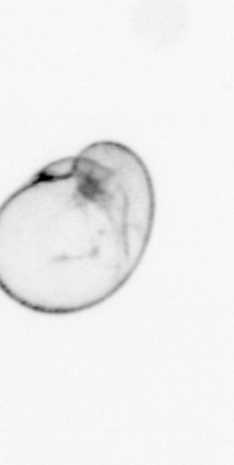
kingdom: Chromista
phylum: Myzozoa
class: Dinophyceae
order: Noctilucales
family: Noctilucaceae
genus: Noctiluca
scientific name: Noctiluca scintillans
